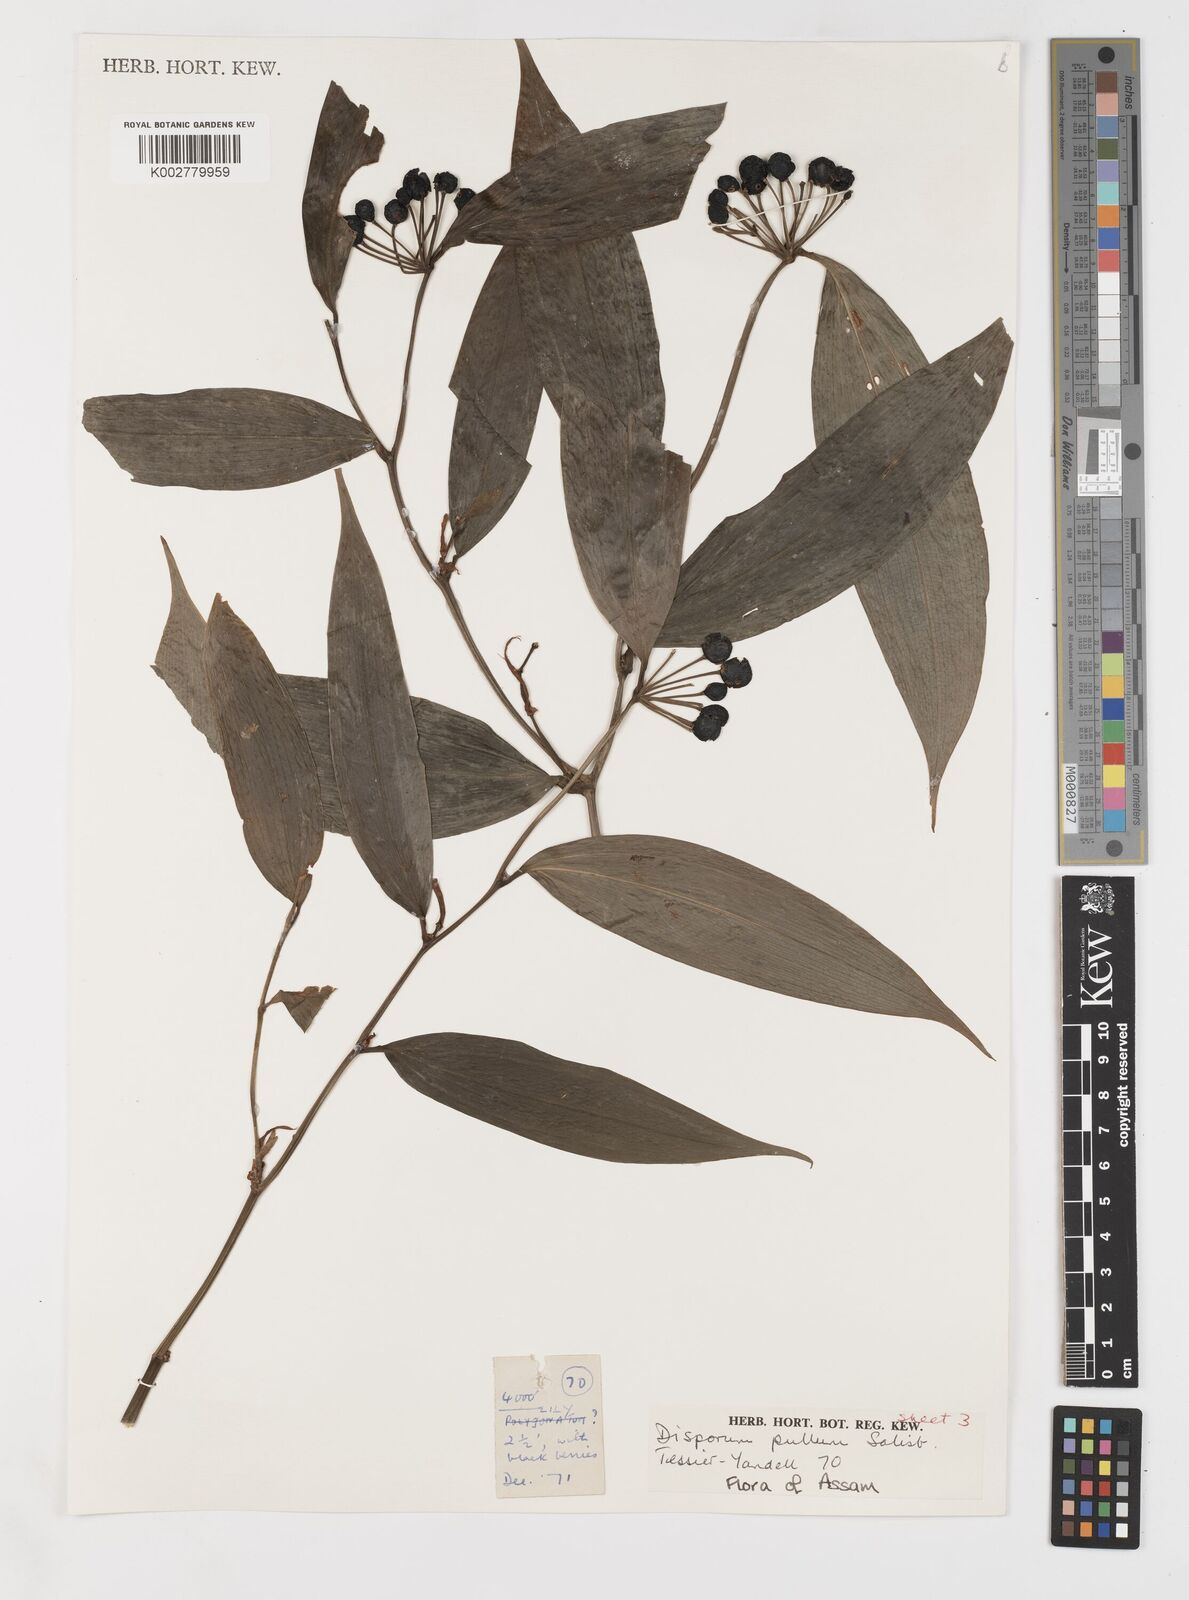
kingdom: Plantae
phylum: Tracheophyta
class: Liliopsida
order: Liliales
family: Colchicaceae
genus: Disporum
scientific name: Disporum cantoniense
